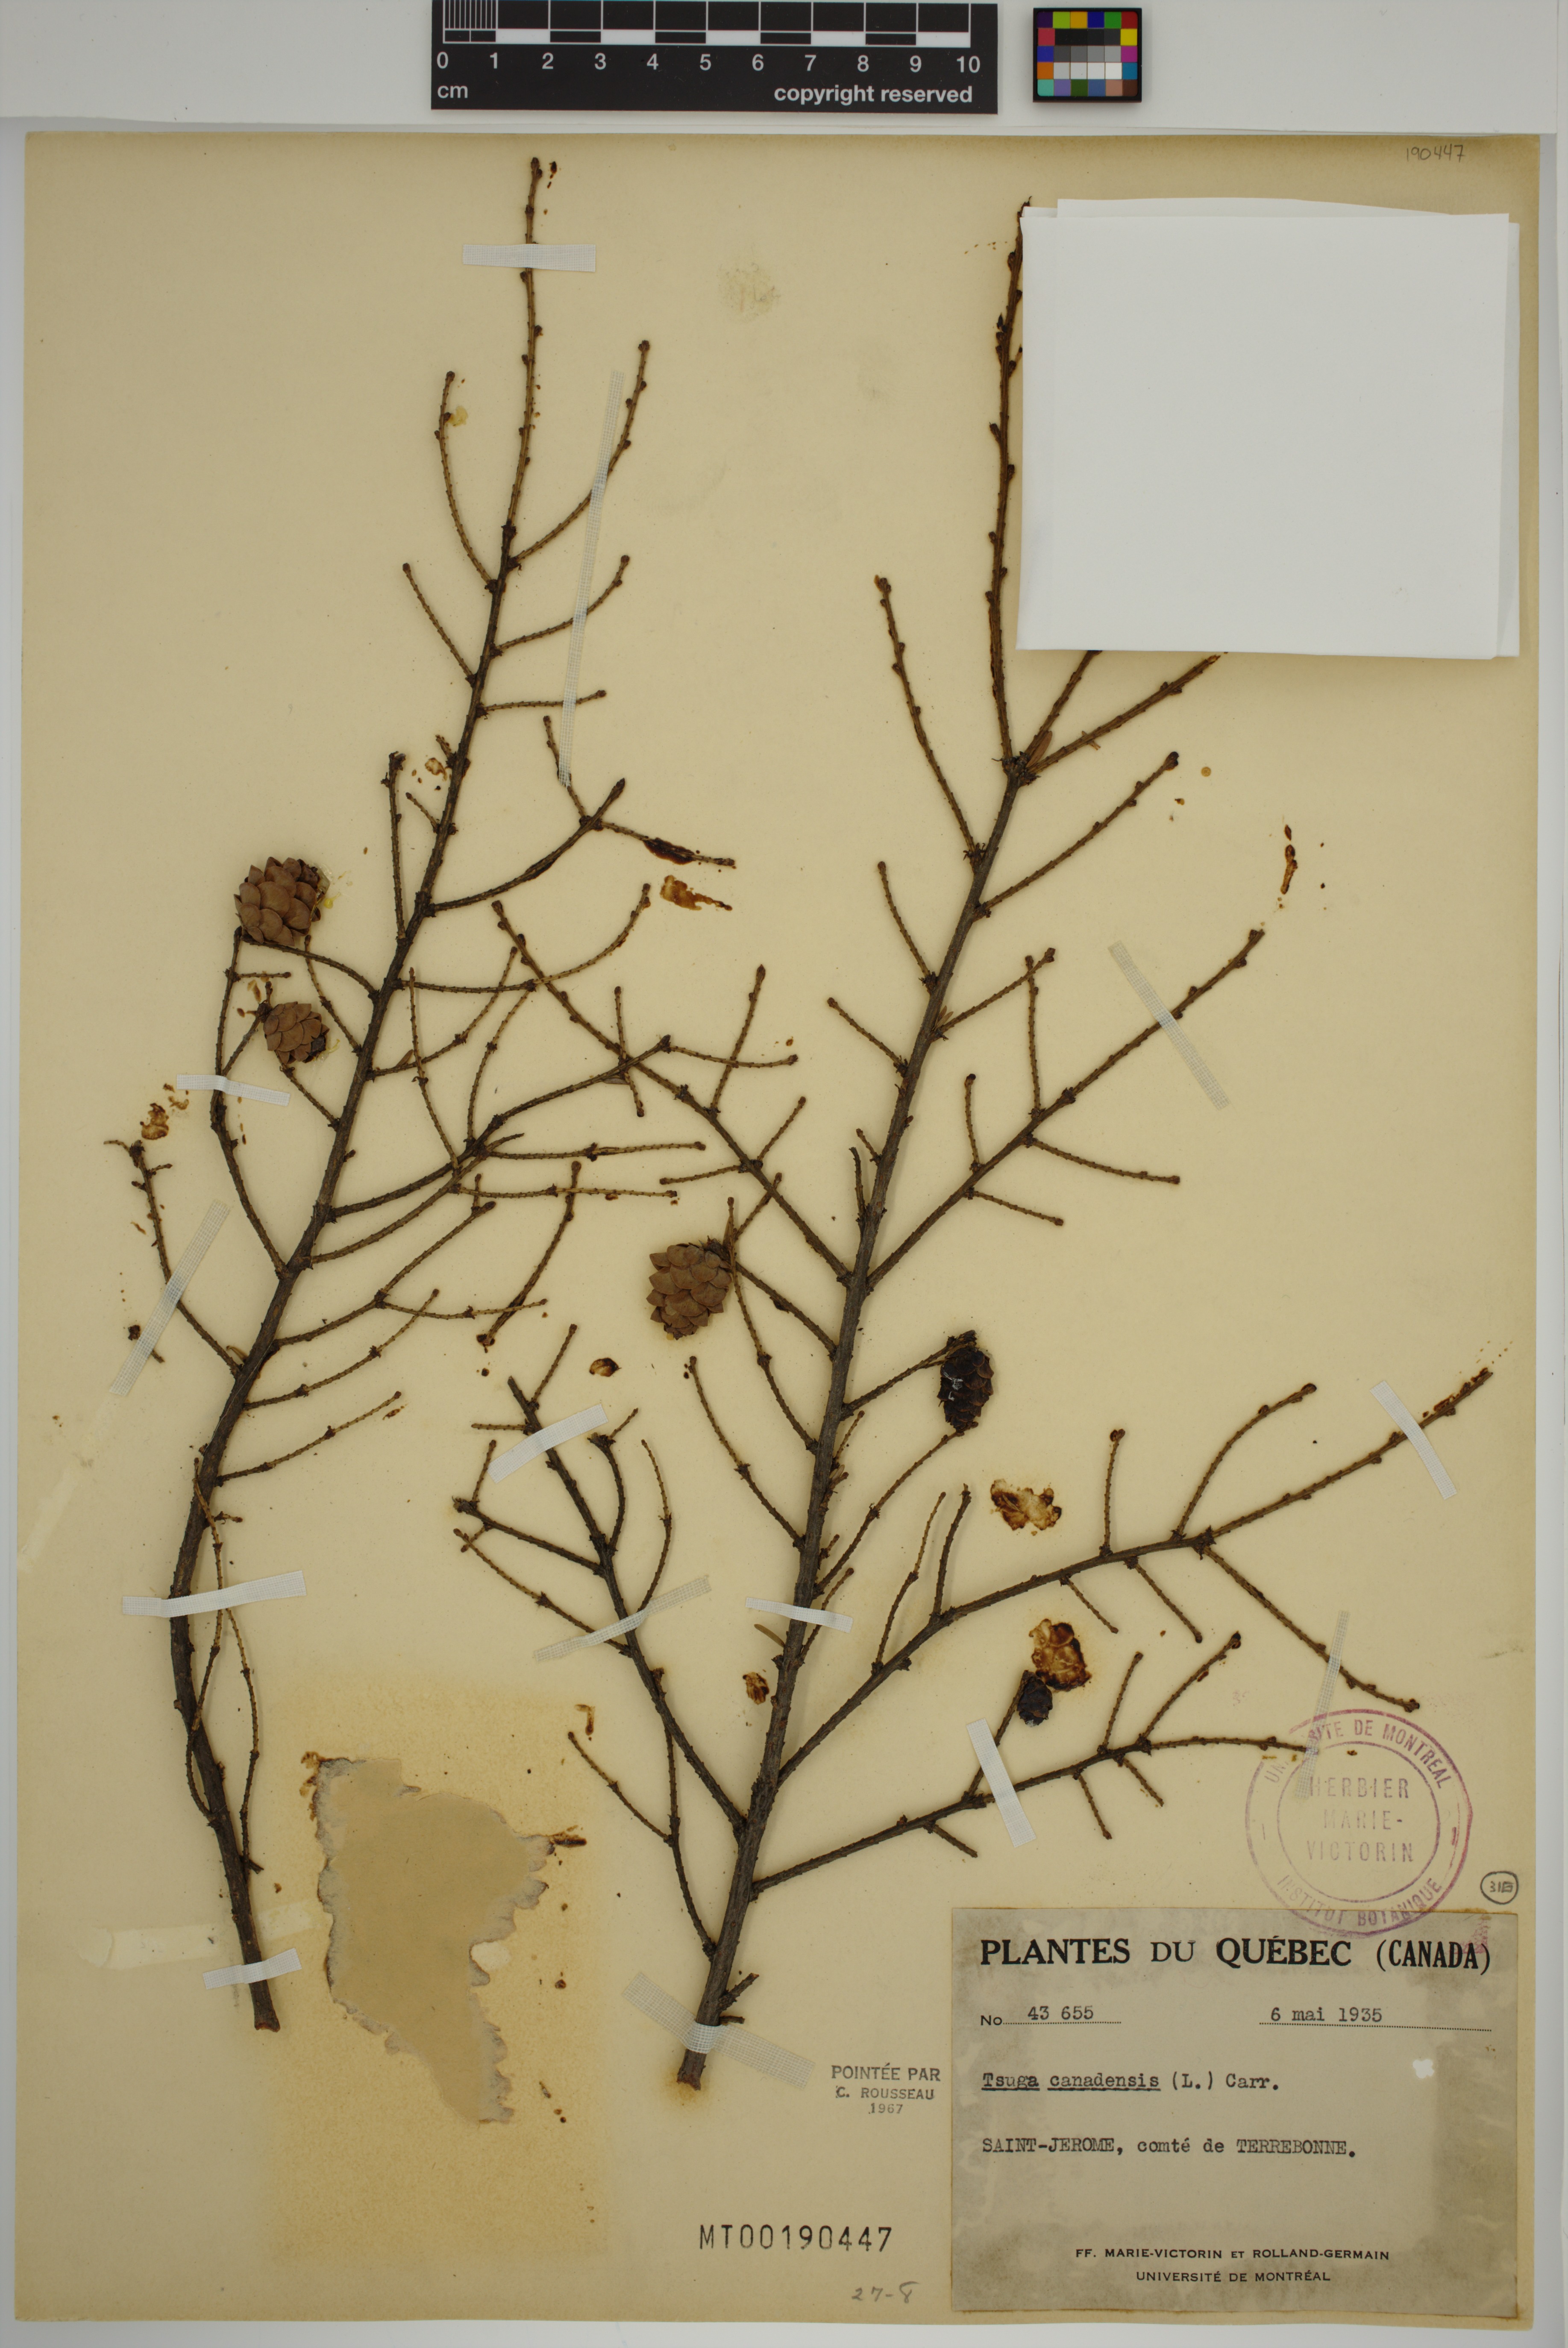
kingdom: Plantae
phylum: Tracheophyta
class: Pinopsida
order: Pinales
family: Pinaceae
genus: Tsuga
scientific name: Tsuga canadensis
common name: Eastern hemlock
